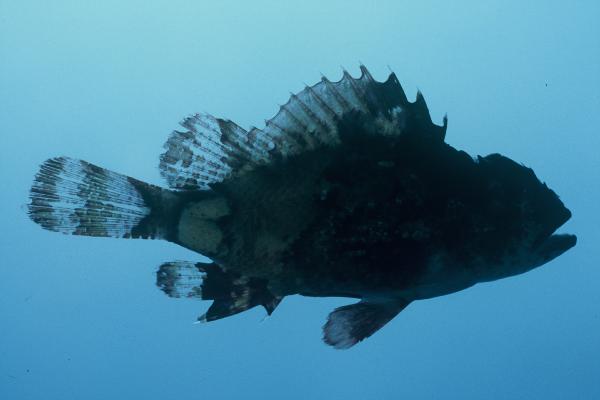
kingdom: Animalia
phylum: Chordata
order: Scorpaeniformes
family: Scorpaenidae
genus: Scorpaenodes
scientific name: Scorpaenodes
